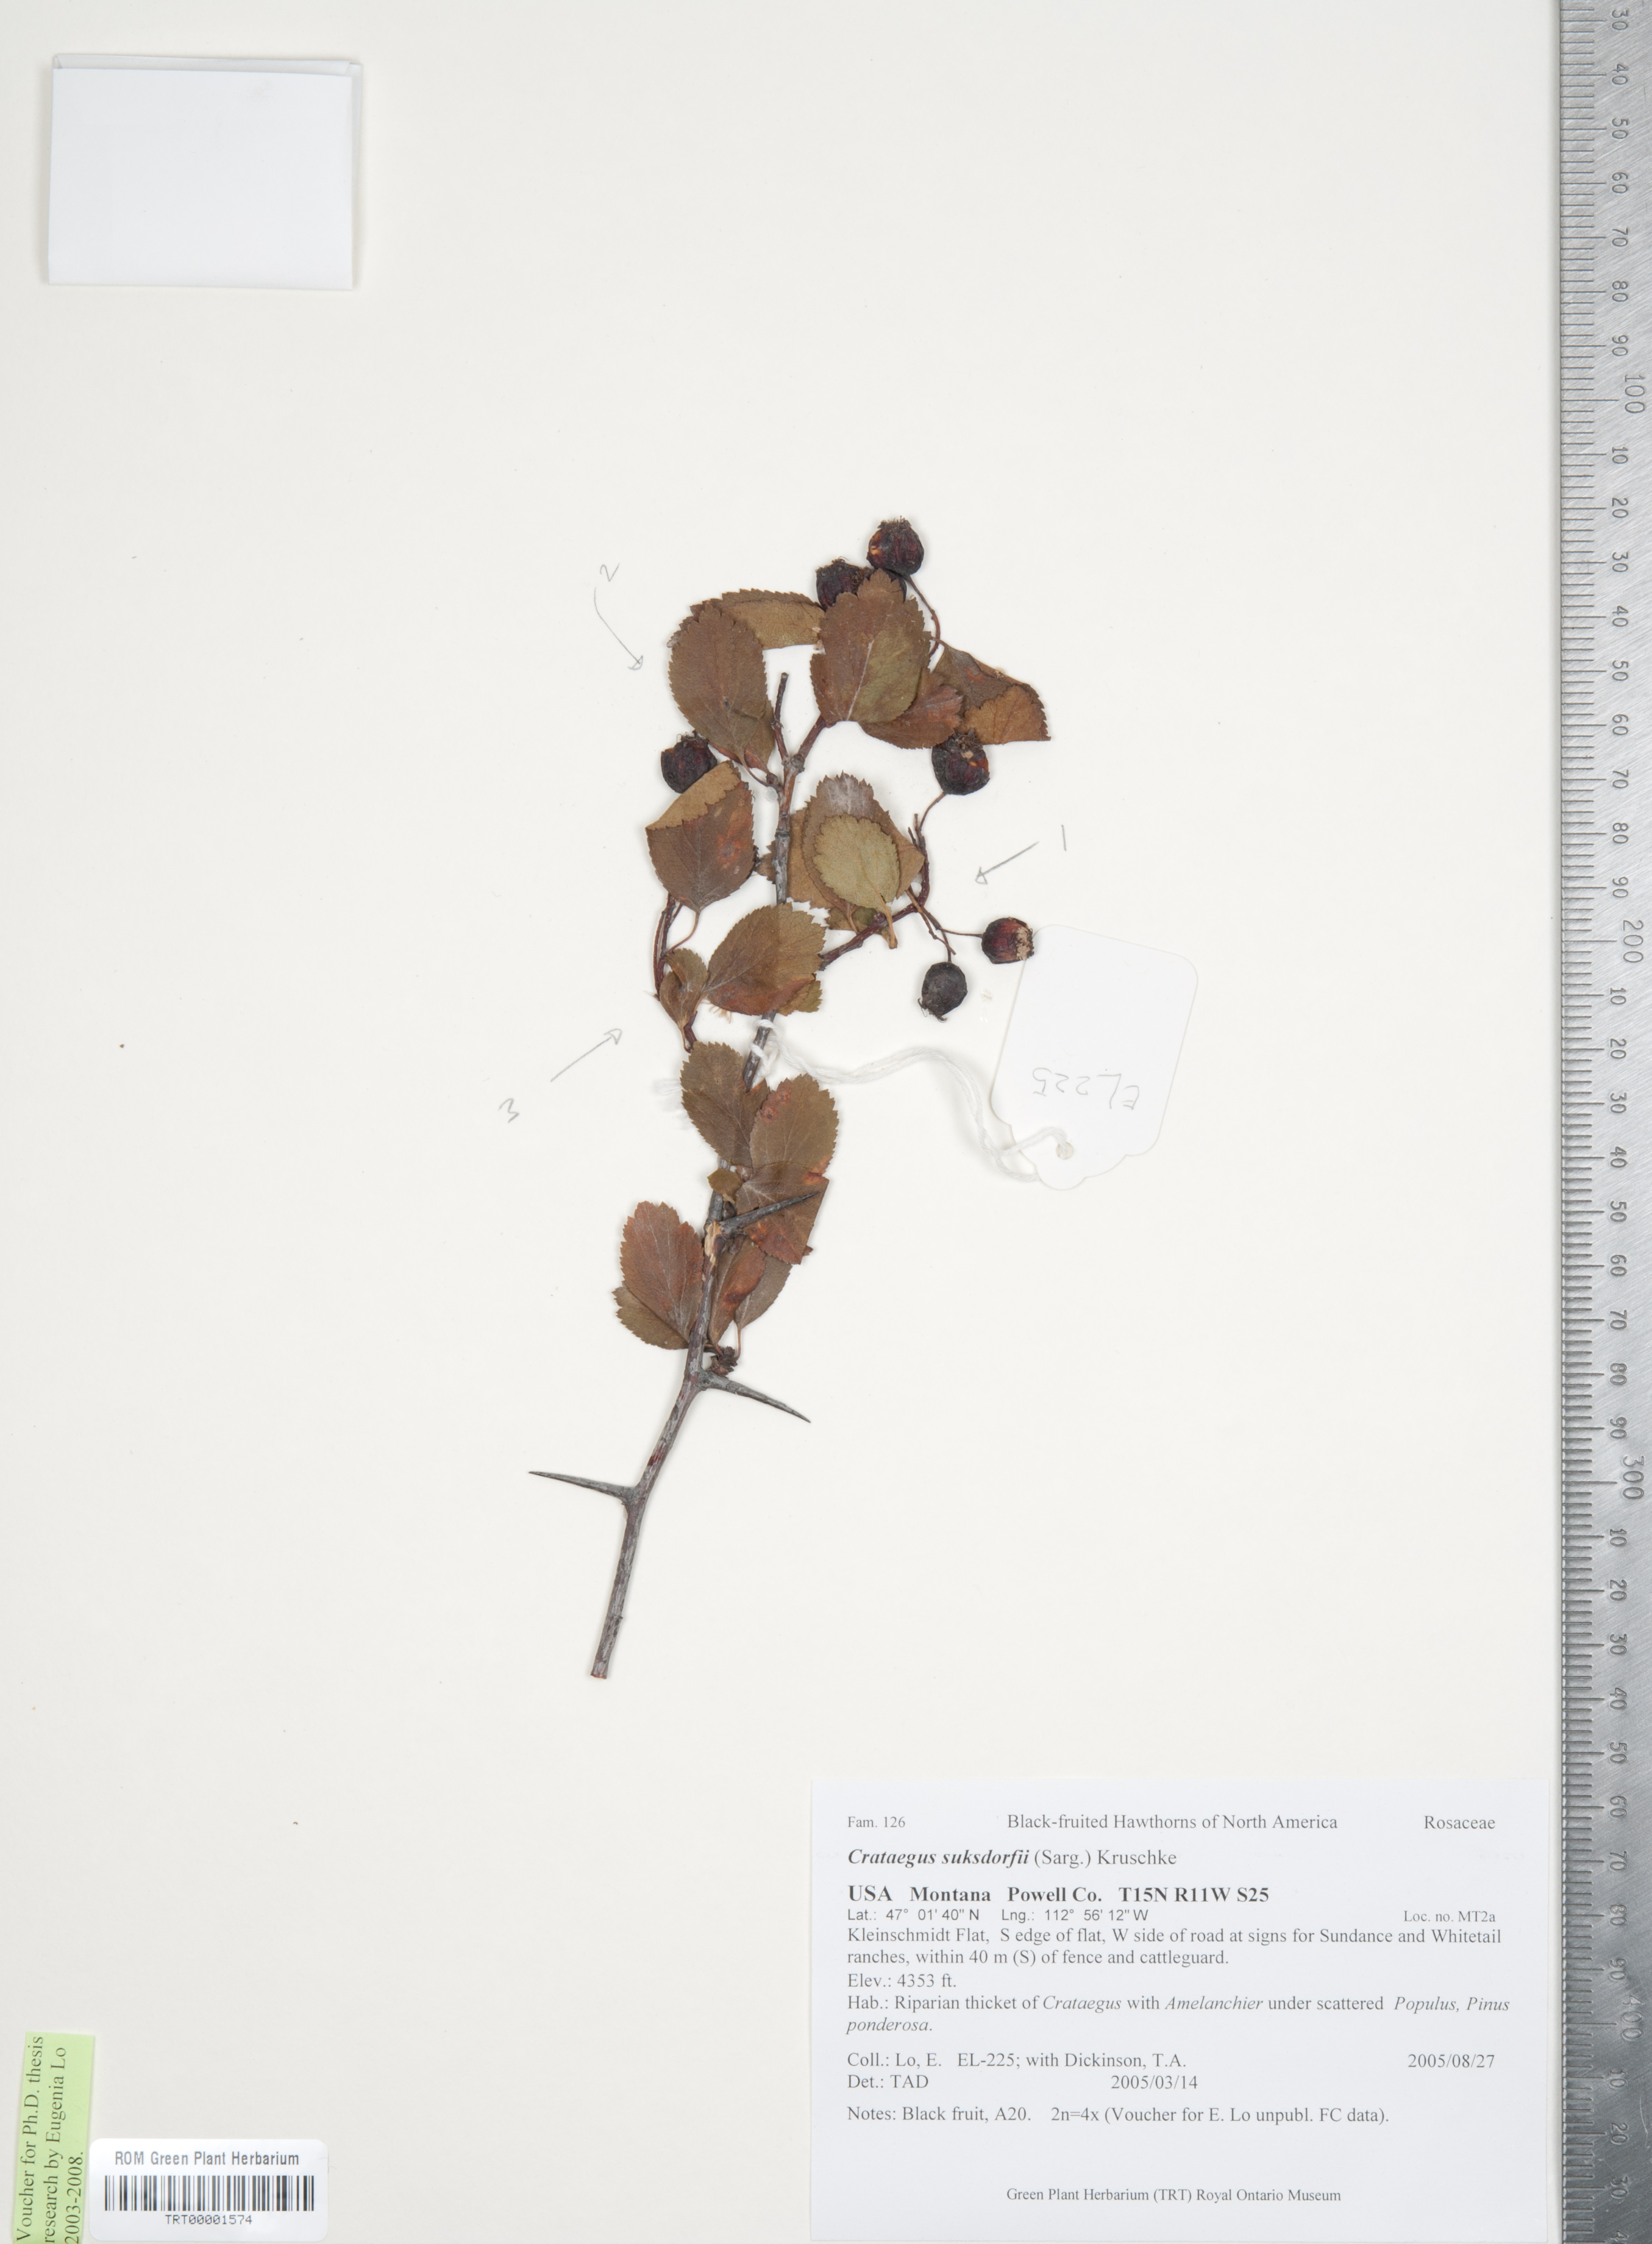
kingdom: Plantae
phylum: Tracheophyta
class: Magnoliopsida
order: Rosales
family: Rosaceae
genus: Crataegus
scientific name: Crataegus gaylussacia
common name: Huckleberry hawthorn
